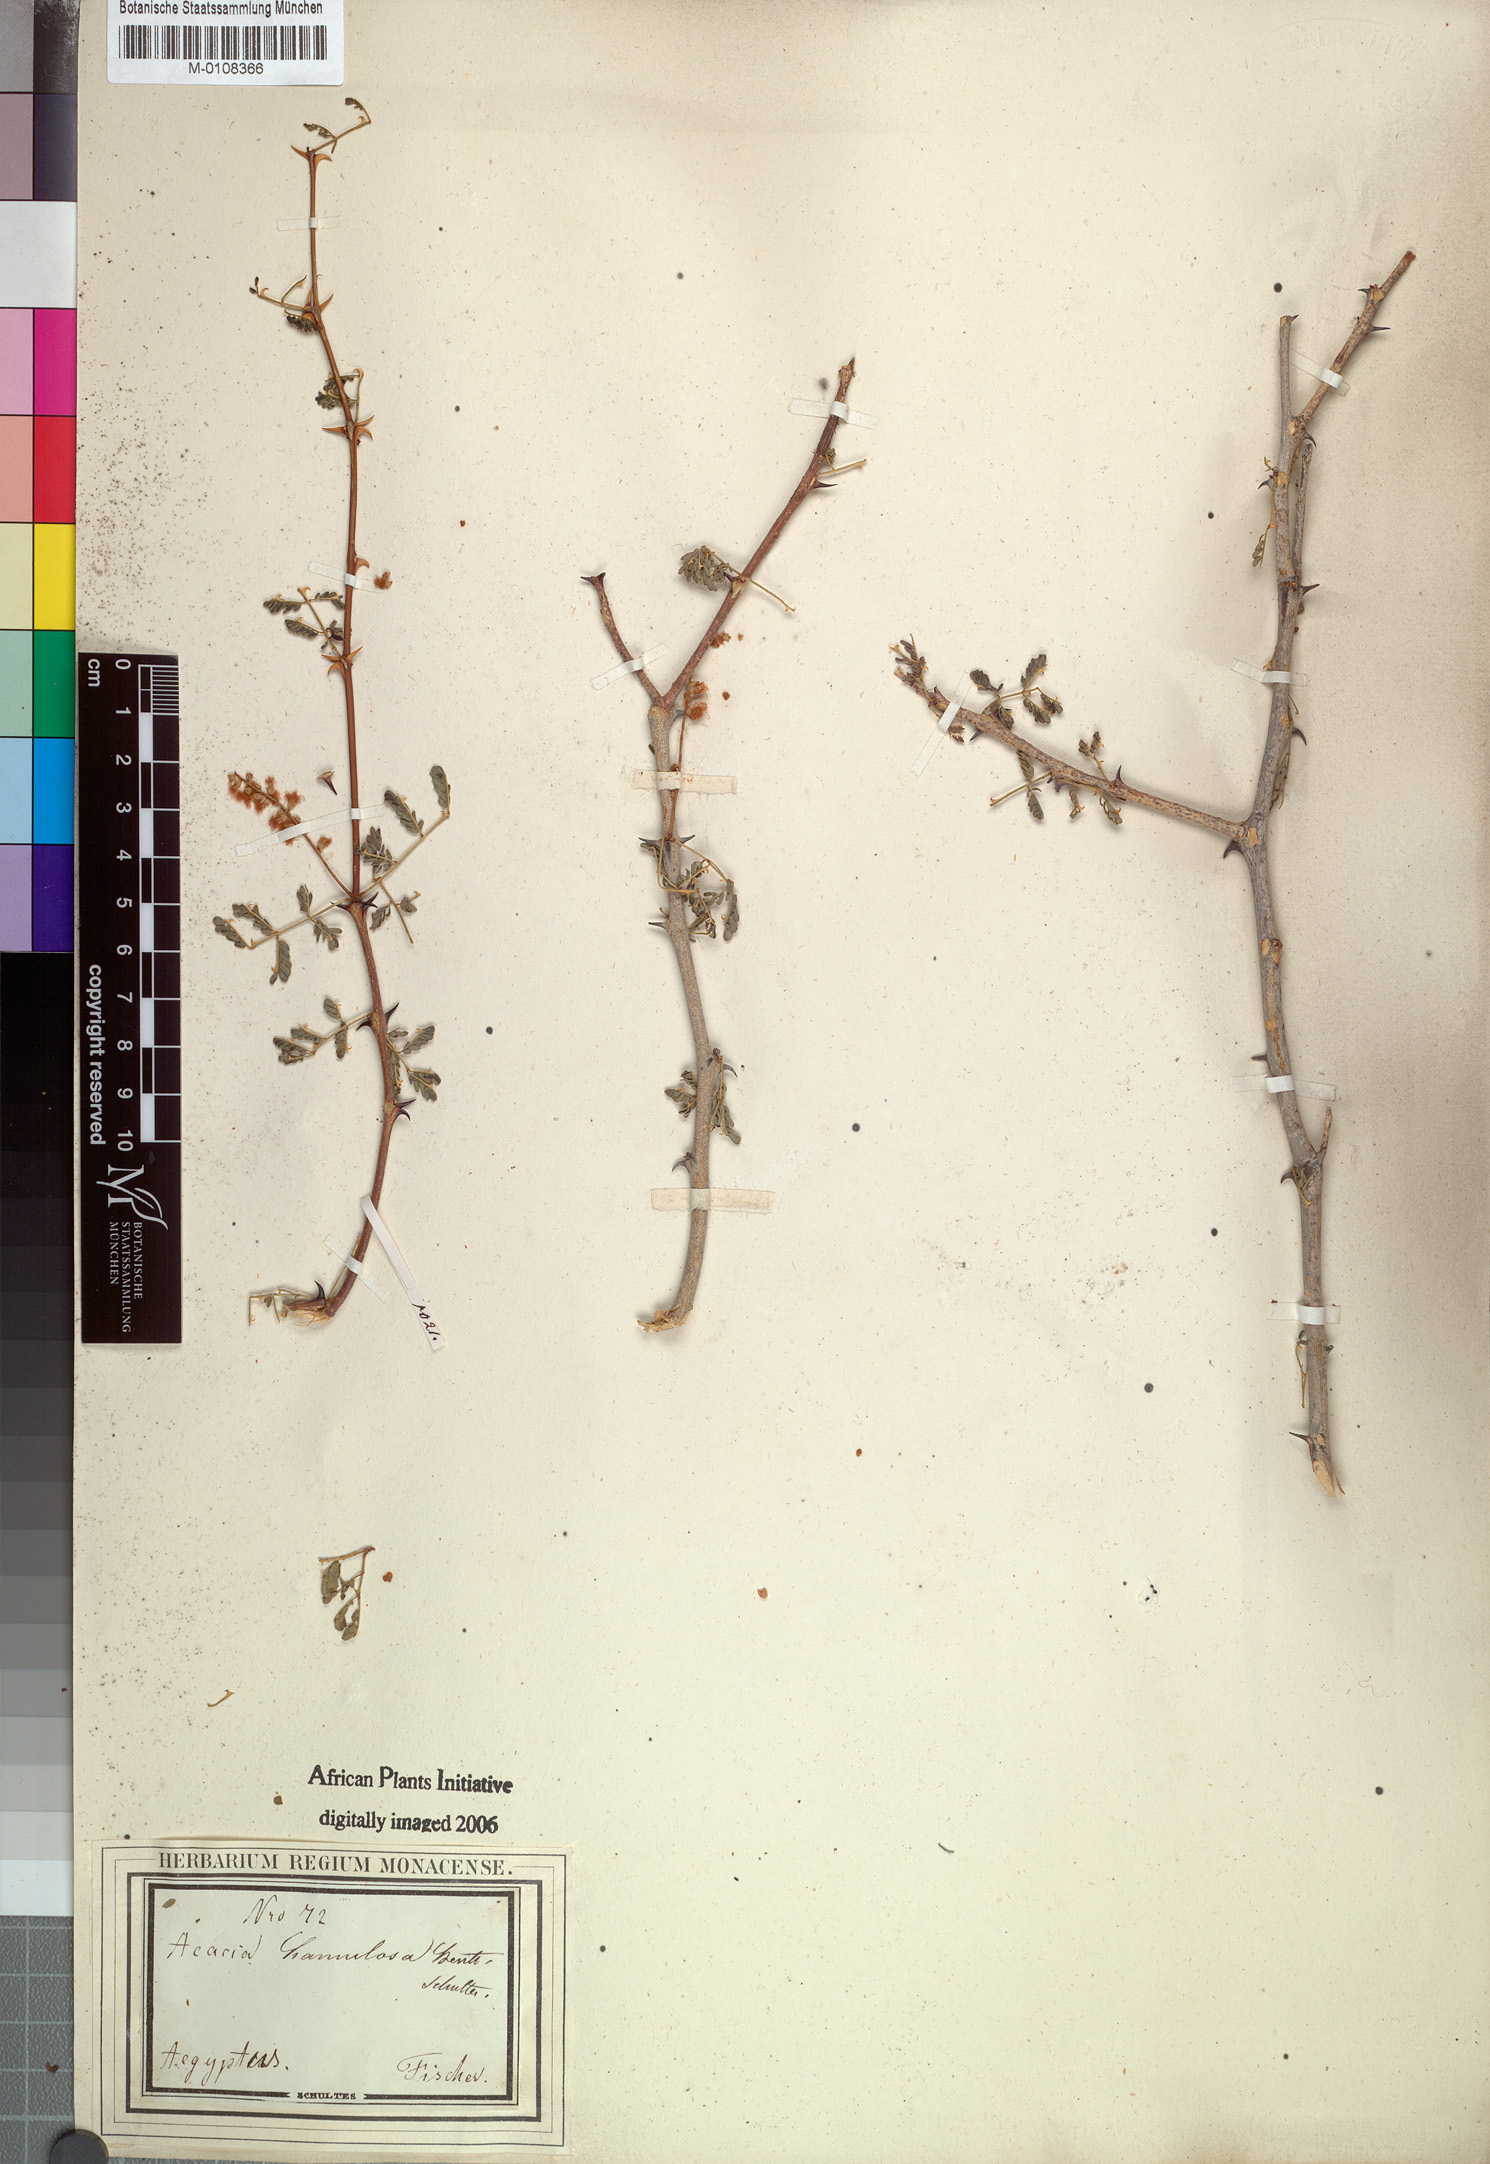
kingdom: Plantae
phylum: Tracheophyta
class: Magnoliopsida
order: Fabales
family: Fabaceae
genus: Senegalia
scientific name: Senegalia hamulosa
